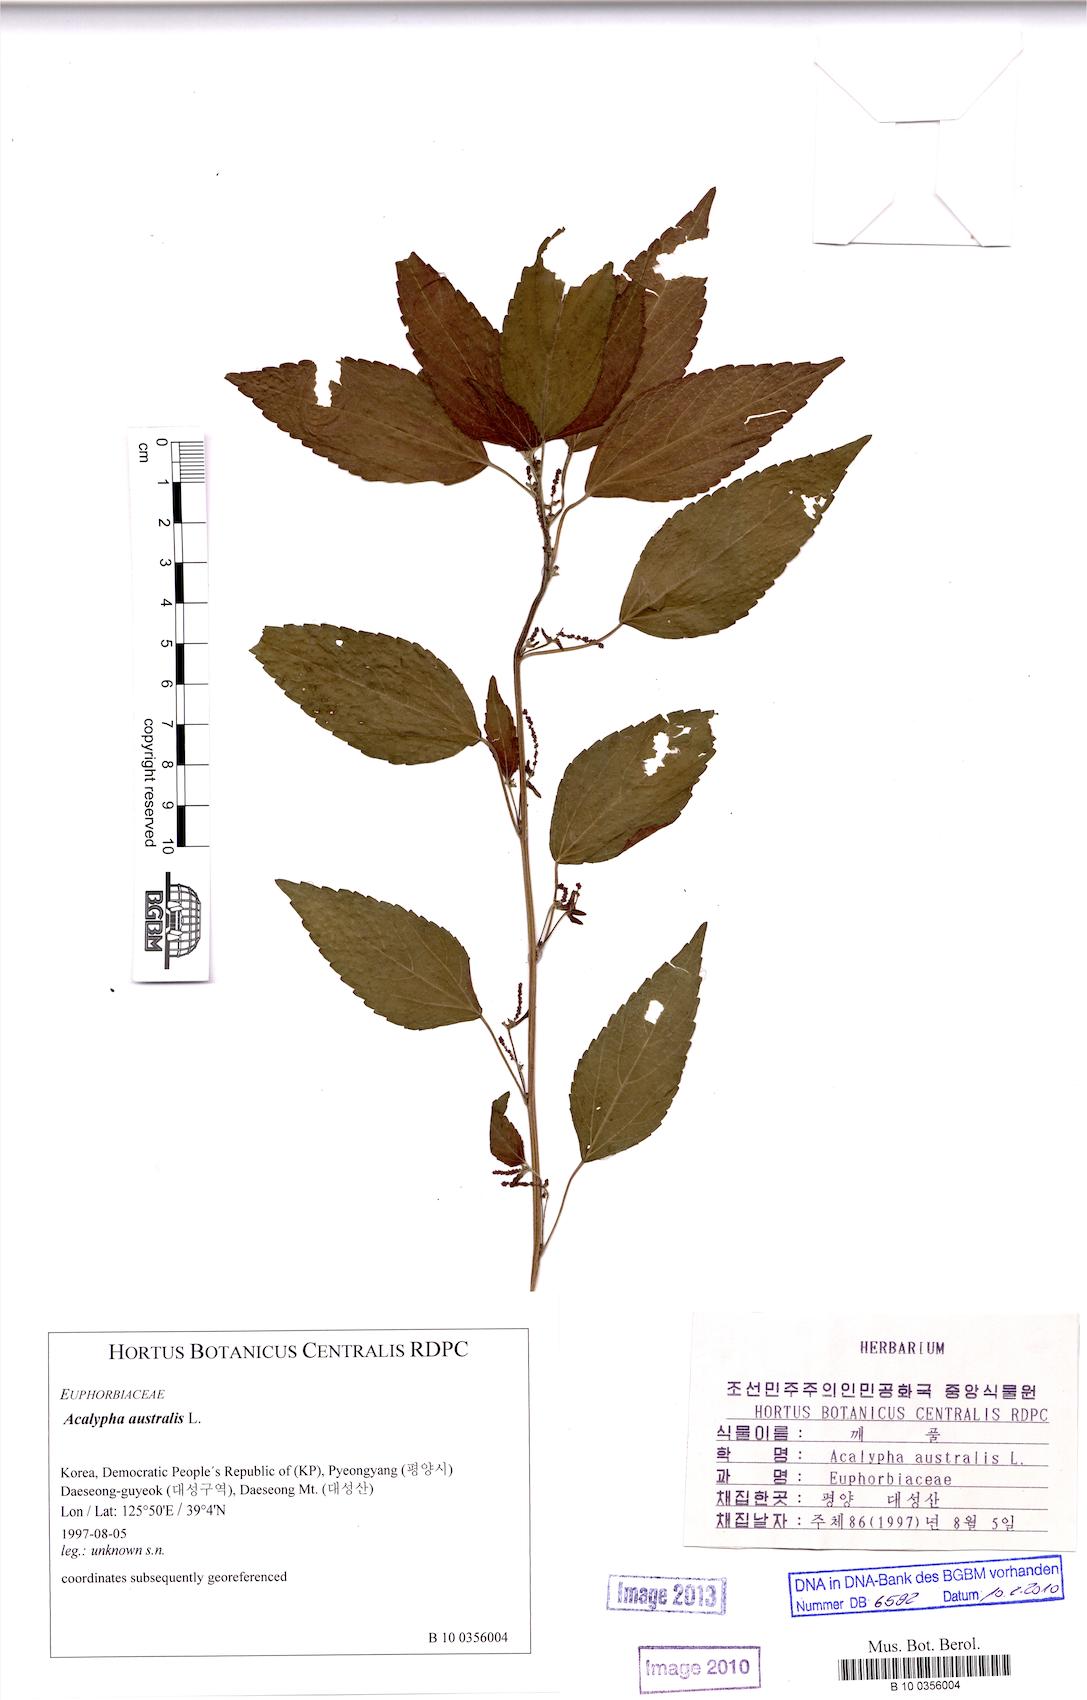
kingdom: Plantae
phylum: Tracheophyta
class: Magnoliopsida
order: Malpighiales
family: Euphorbiaceae
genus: Acalypha
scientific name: Acalypha australis
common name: Asian copperleaf
